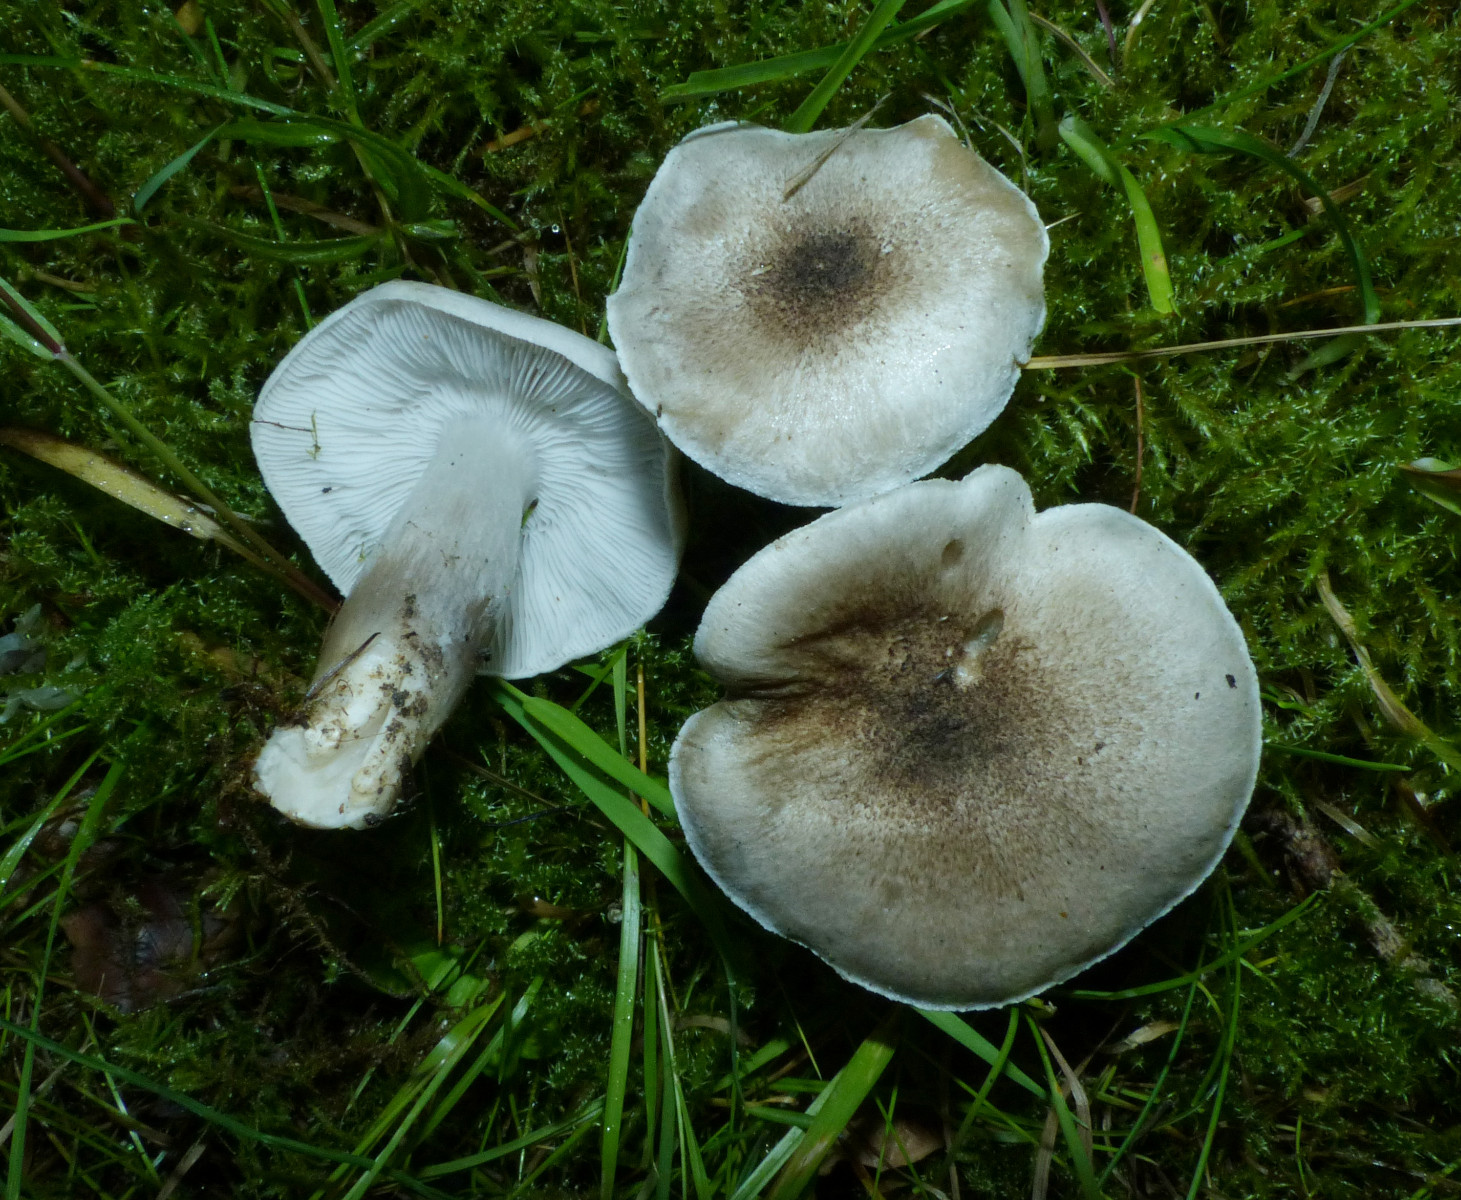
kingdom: Fungi
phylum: Basidiomycota
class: Agaricomycetes
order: Agaricales
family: Tricholomataceae
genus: Tricholoma
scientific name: Tricholoma argyraceum
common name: slør-ridderhat
